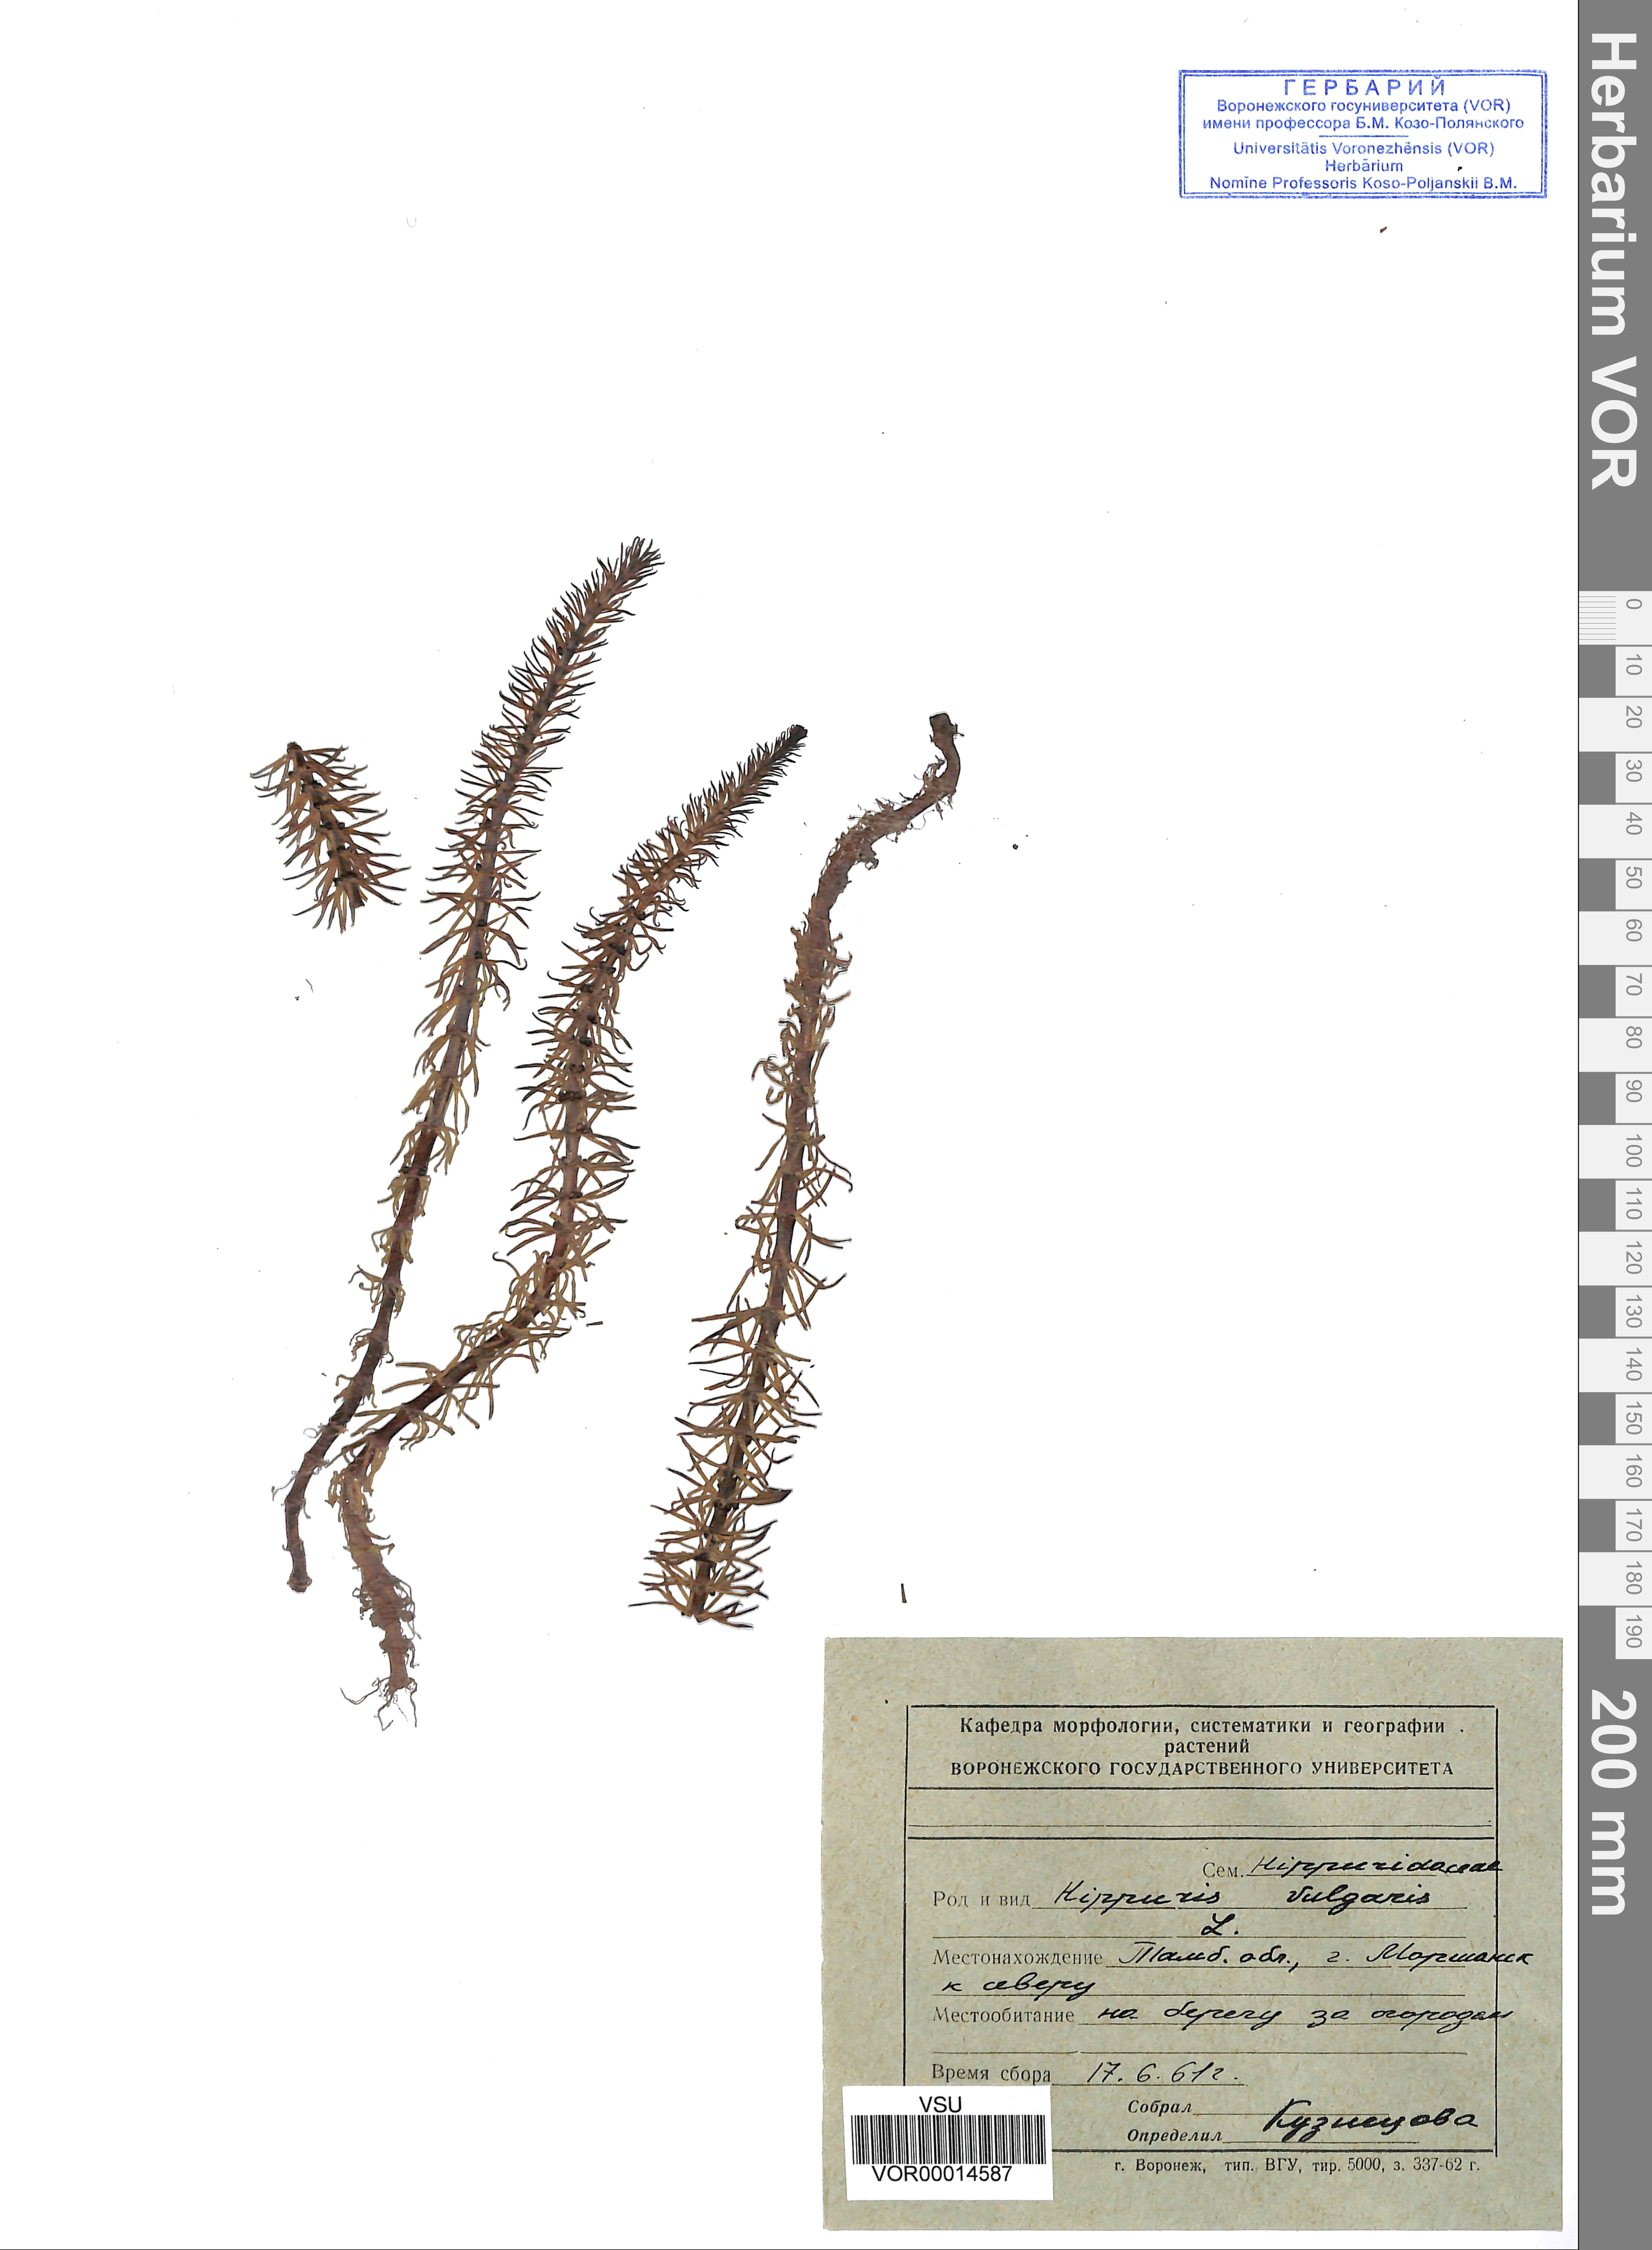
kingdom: Plantae
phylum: Tracheophyta
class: Magnoliopsida
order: Lamiales
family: Plantaginaceae
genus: Hippuris
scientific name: Hippuris vulgaris
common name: Mare's-tail
